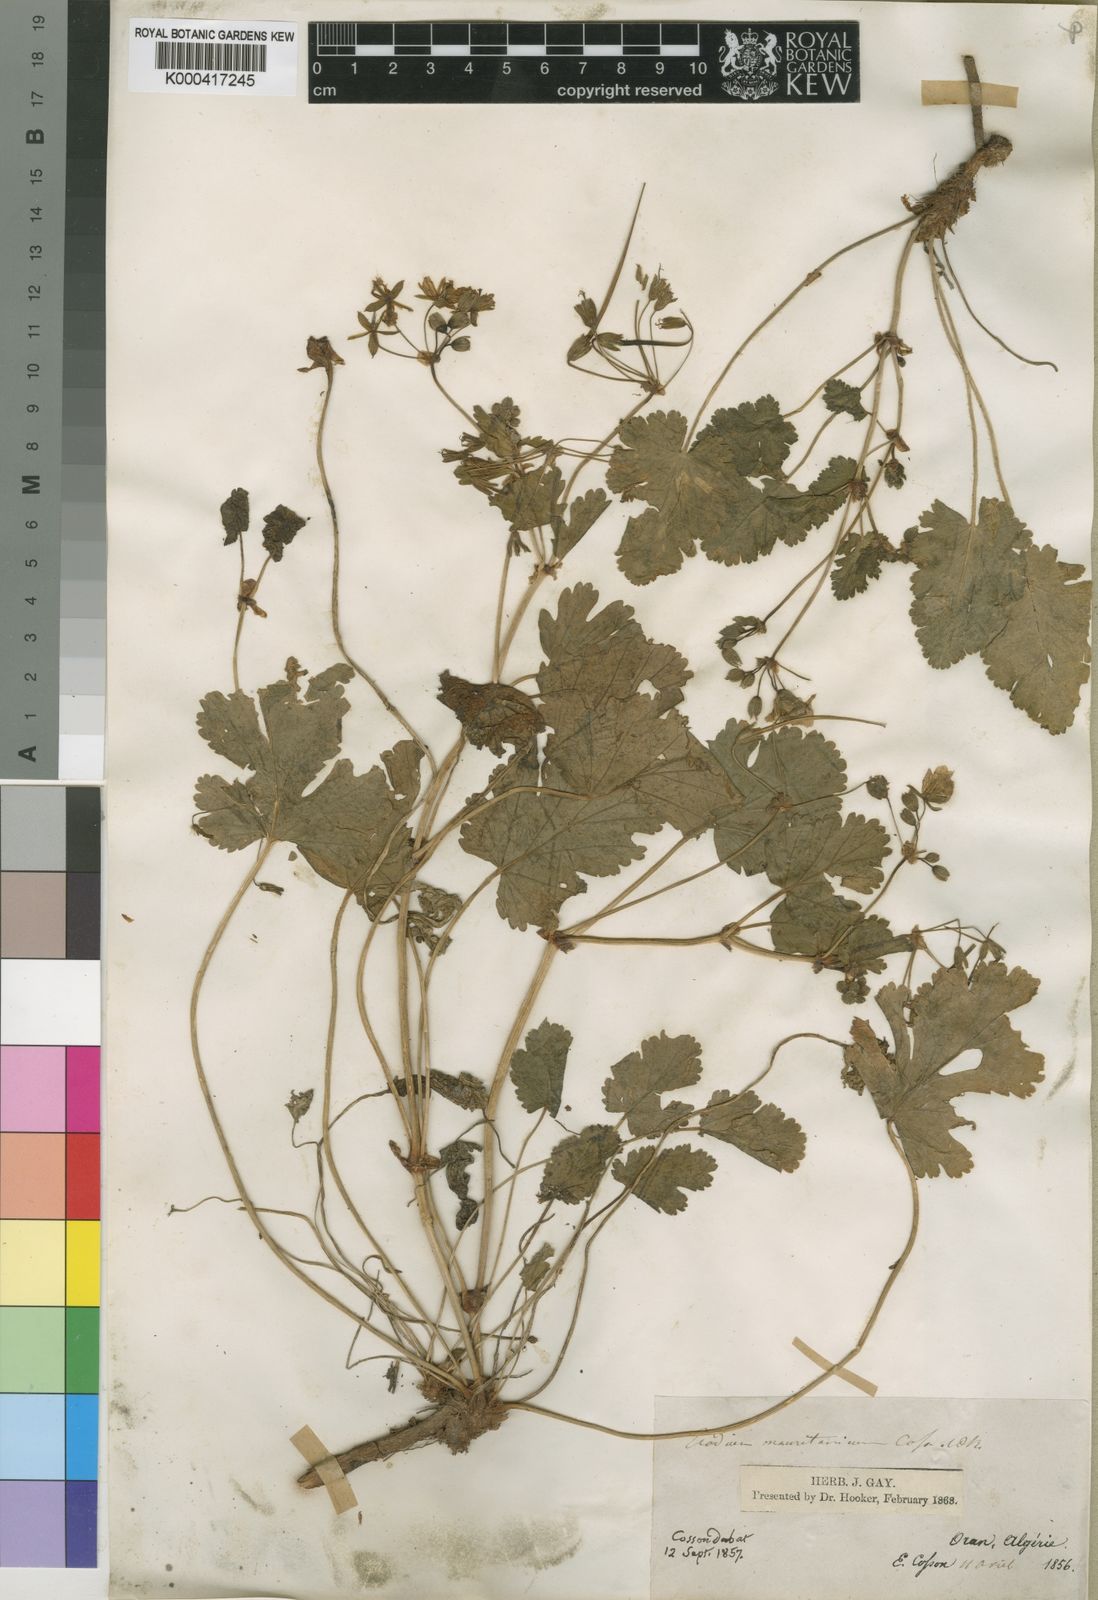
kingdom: Plantae
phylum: Tracheophyta
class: Magnoliopsida
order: Geraniales
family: Geraniaceae
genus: Erodium
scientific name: Erodium munbyanum
